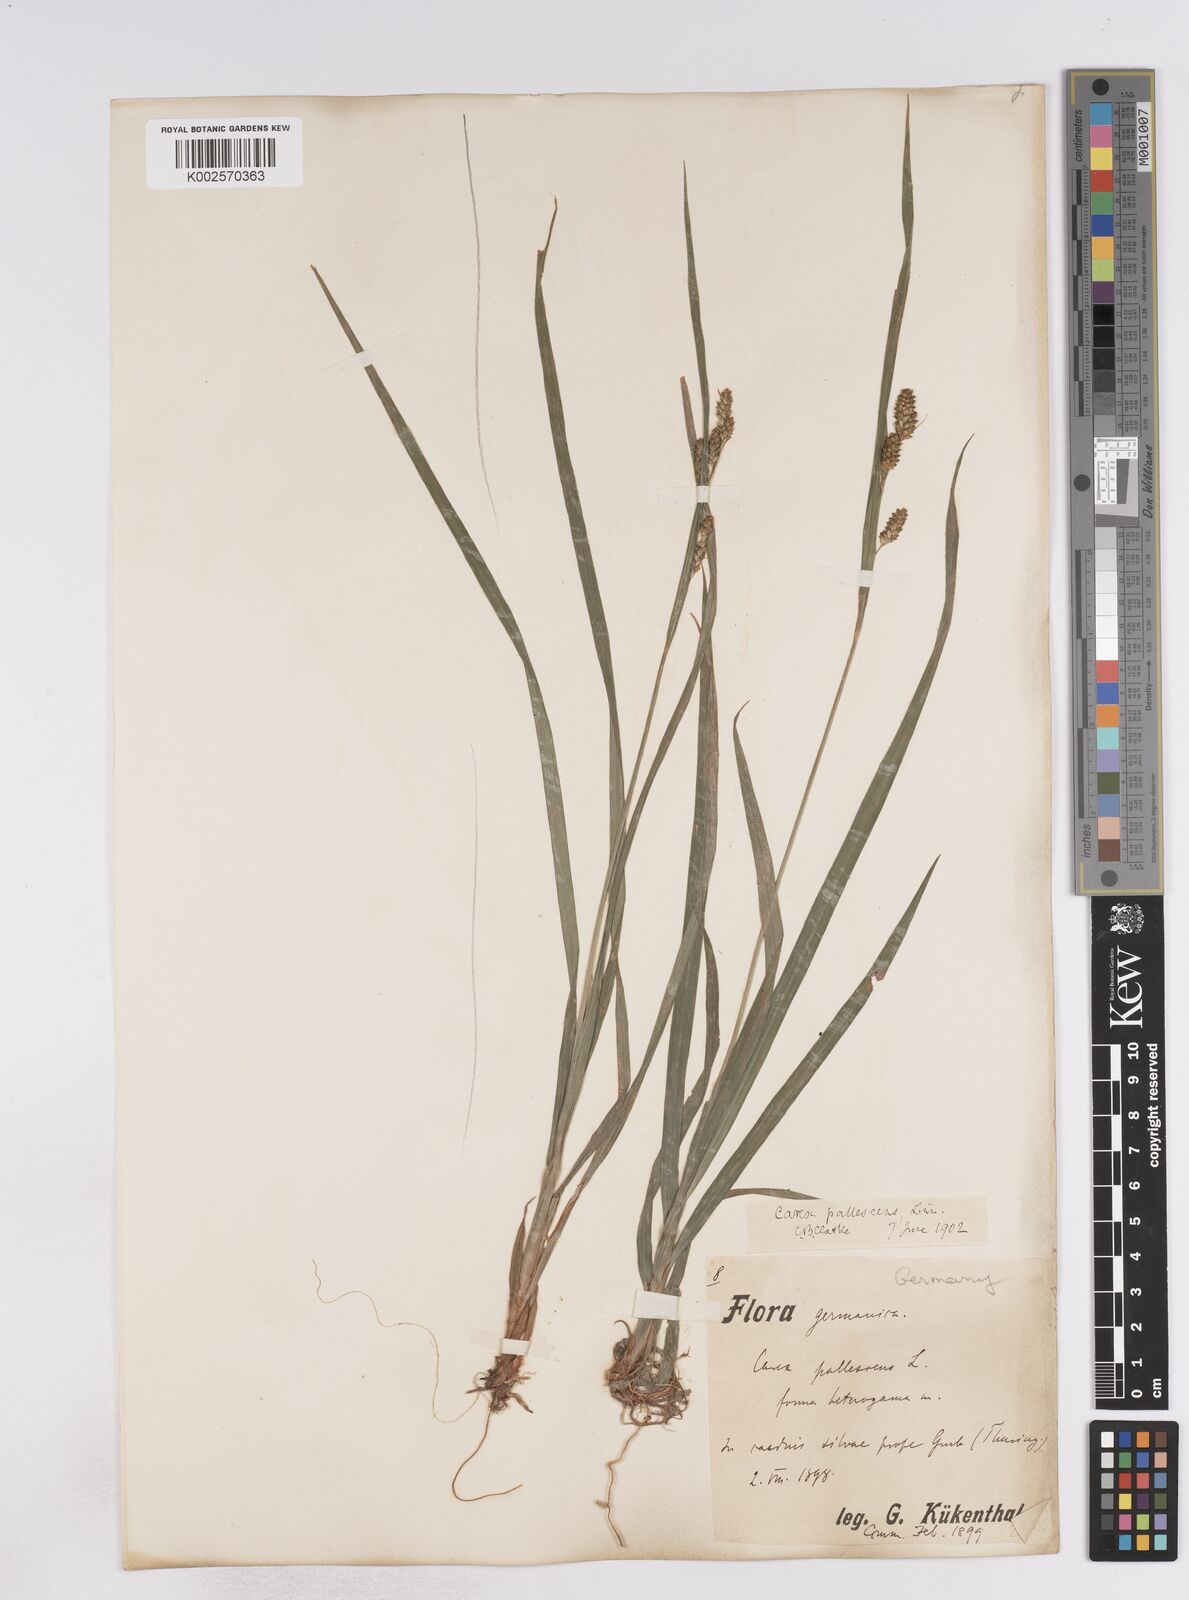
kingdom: Plantae
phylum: Tracheophyta
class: Liliopsida
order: Poales
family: Cyperaceae
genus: Carex
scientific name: Carex pallescens
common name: Pale sedge
